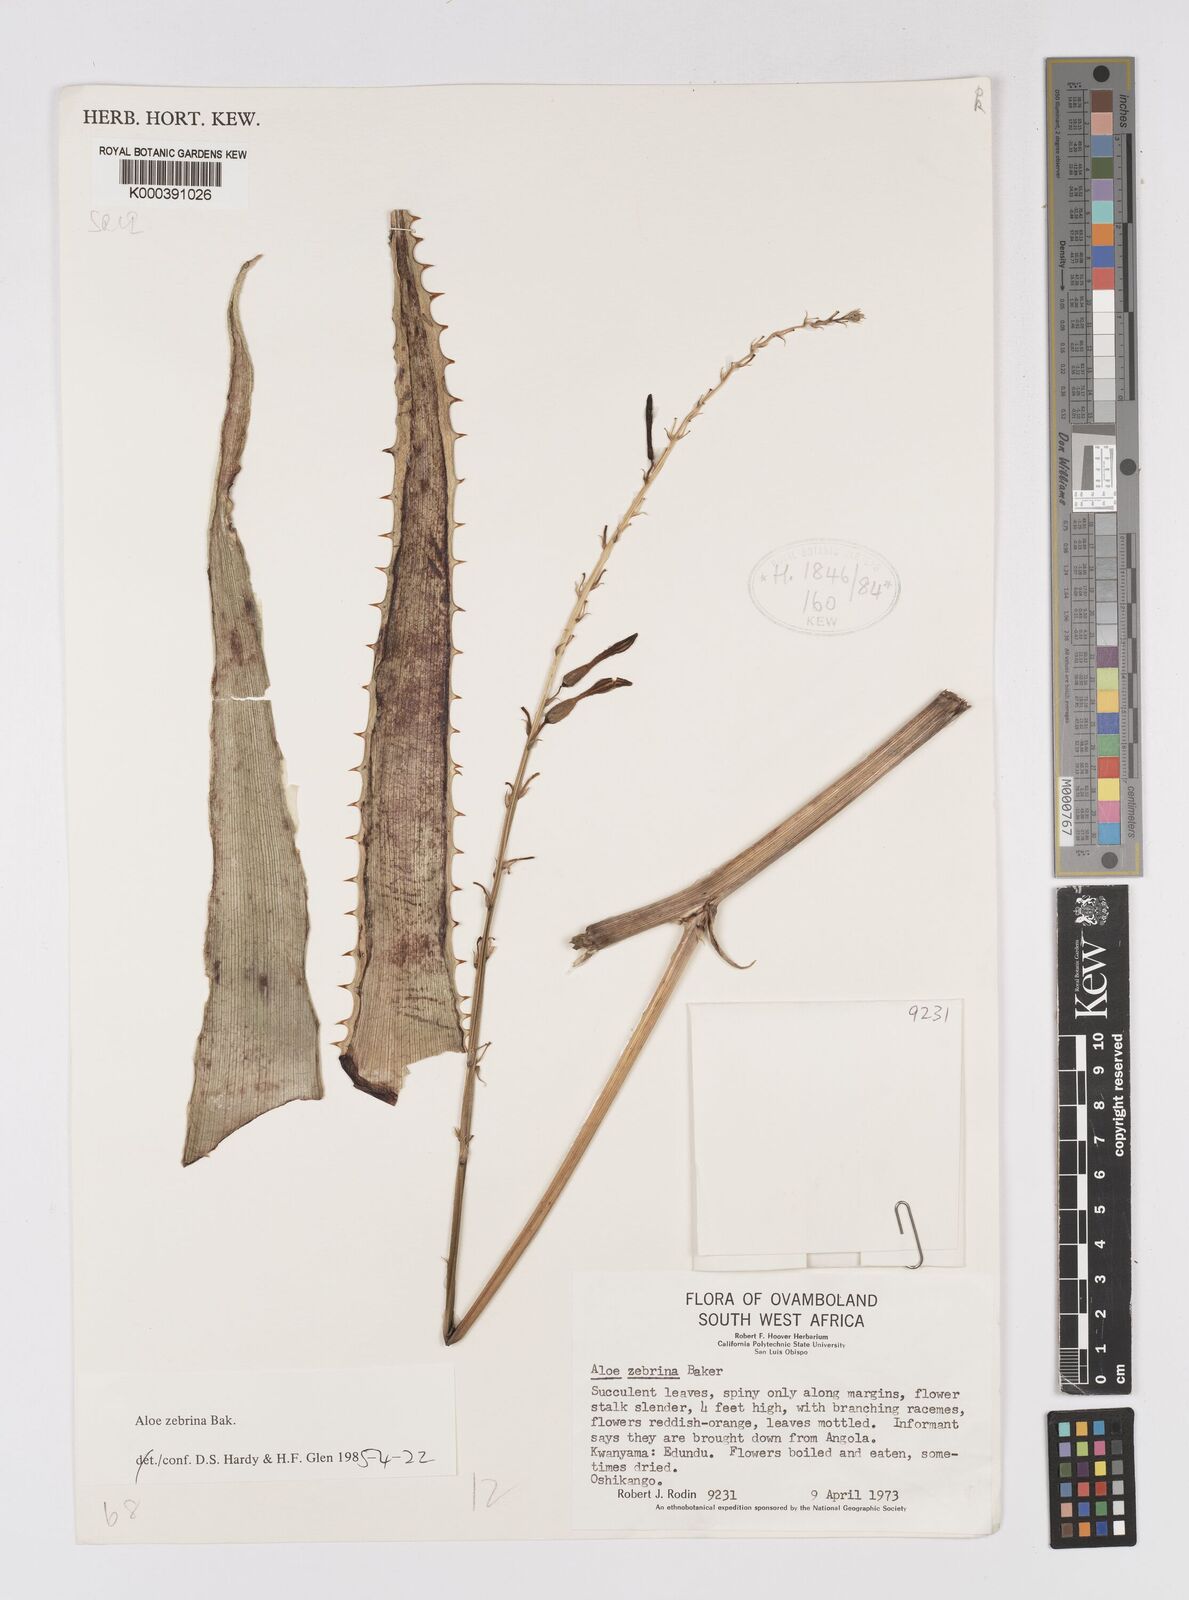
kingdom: Plantae
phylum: Tracheophyta
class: Liliopsida
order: Asparagales
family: Asphodelaceae
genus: Aloe
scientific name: Aloe zebrina
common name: Zebra-leaf aloe
